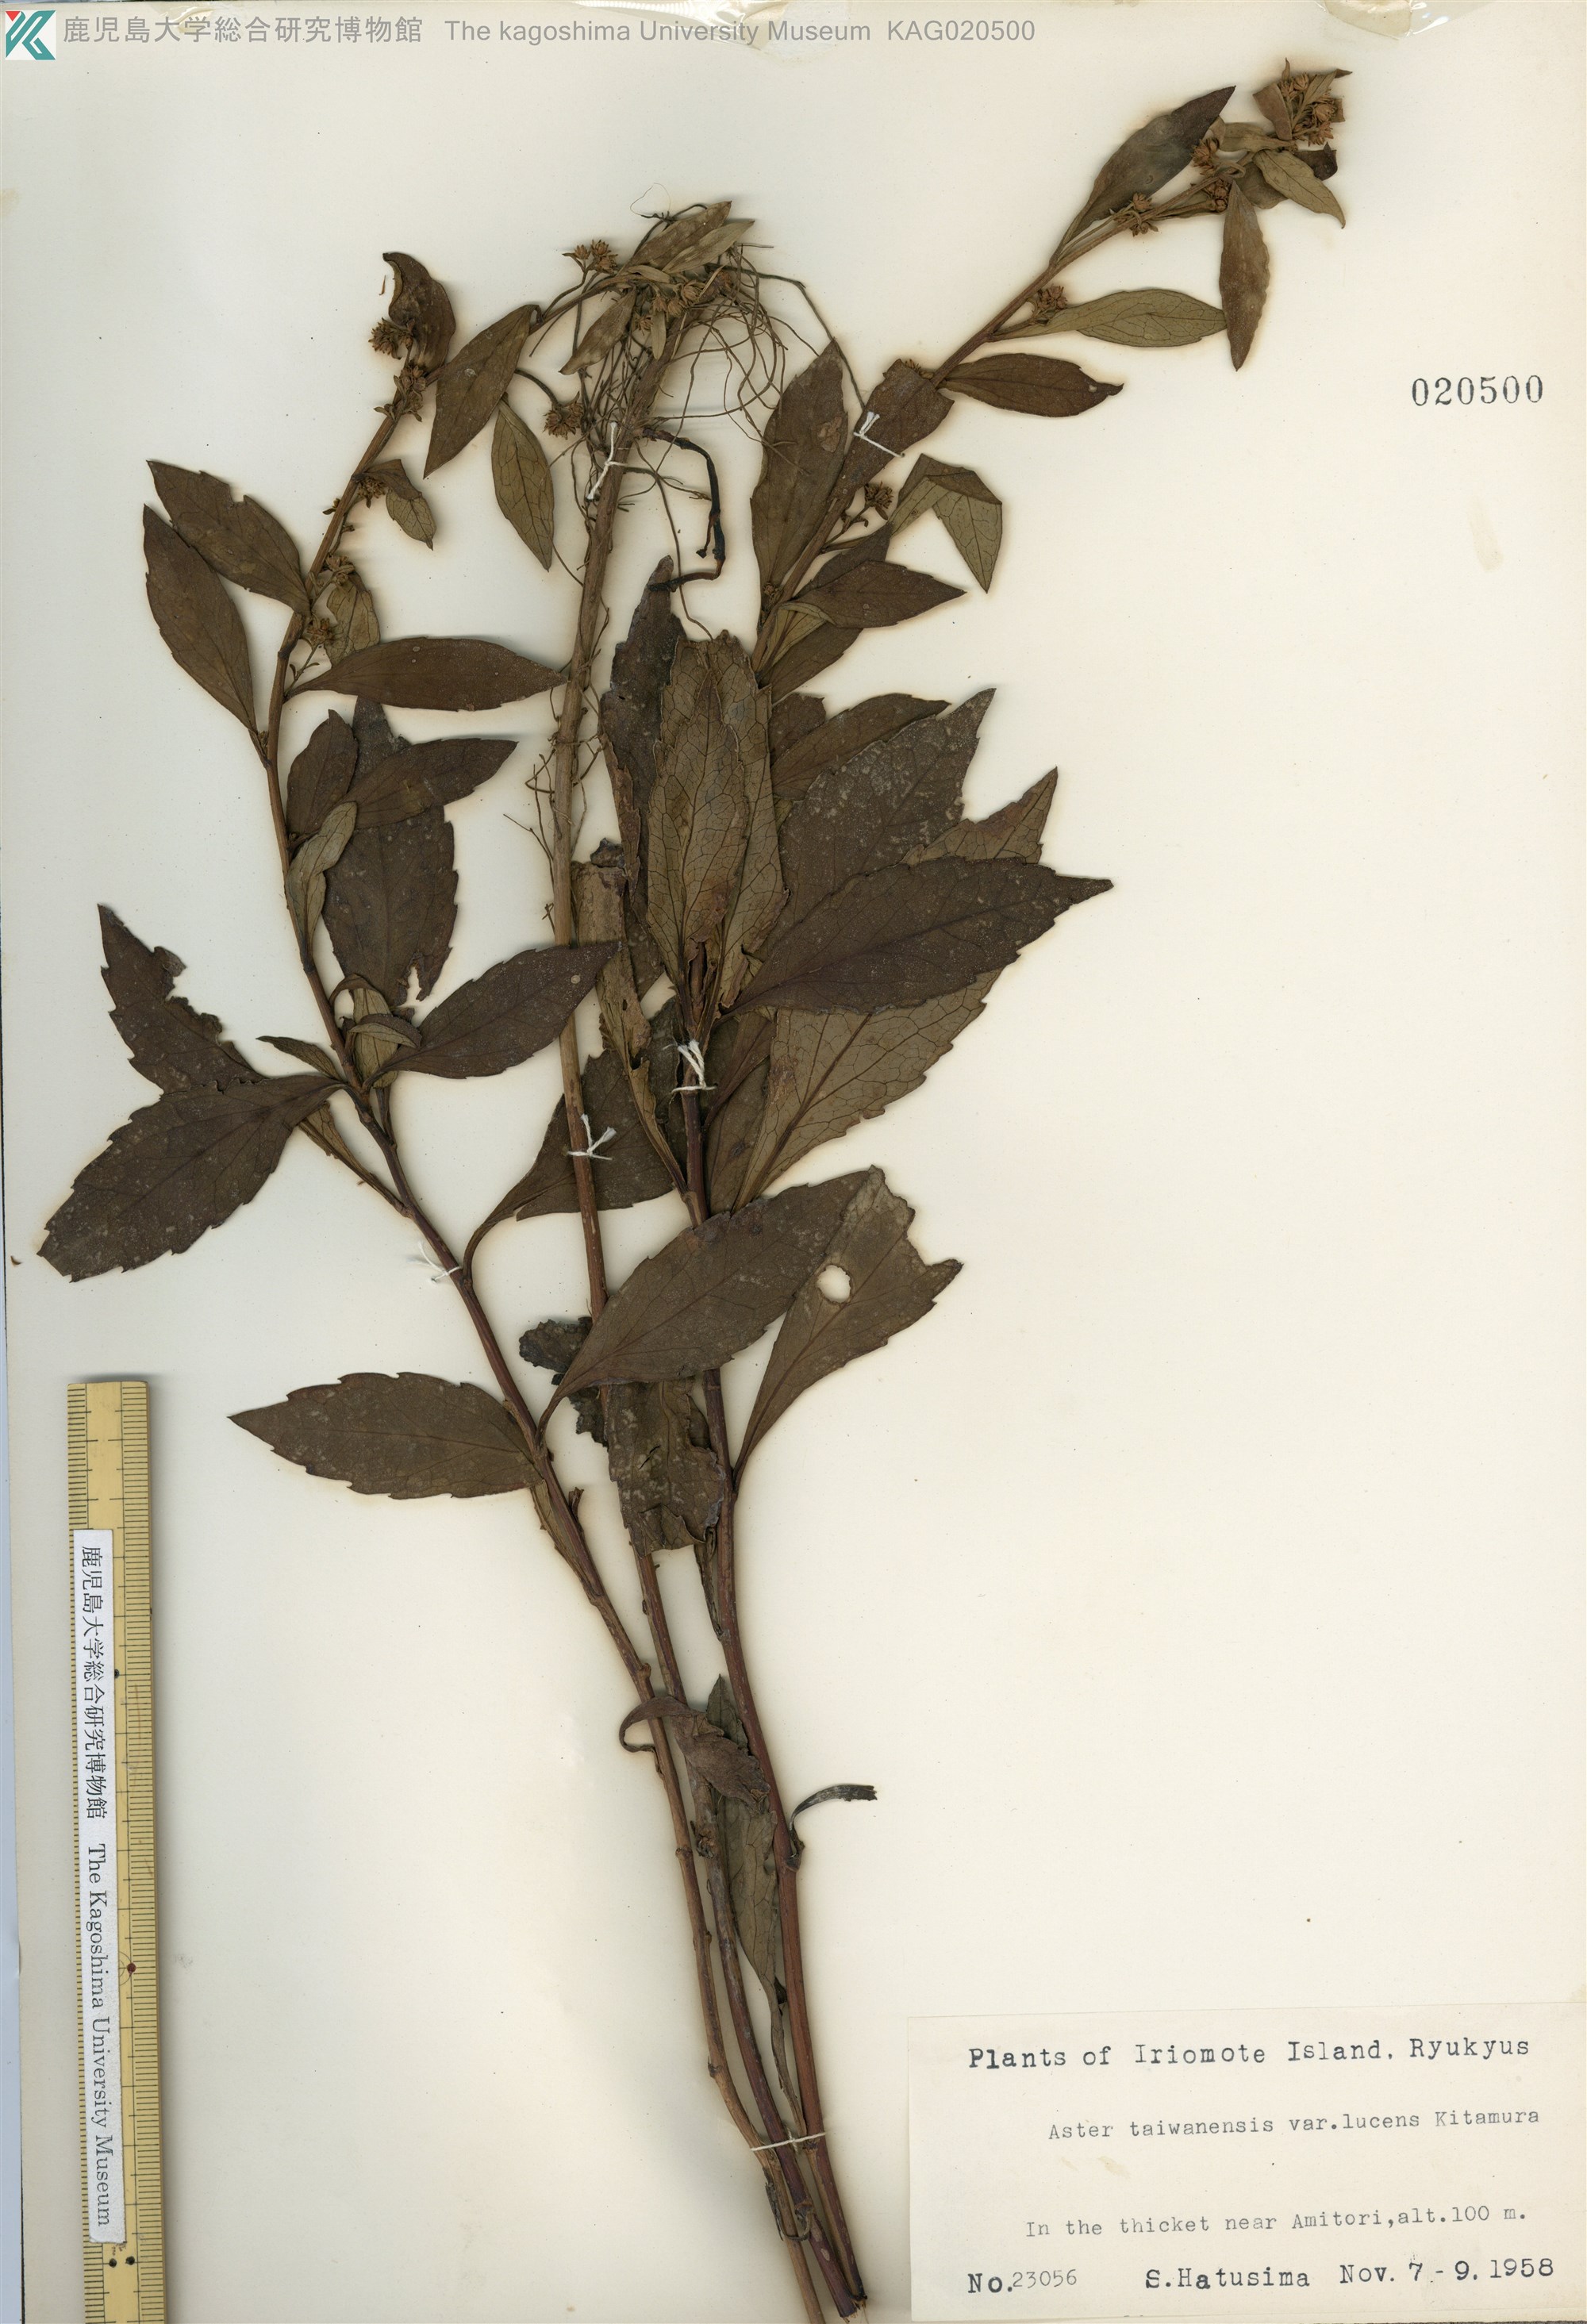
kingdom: Plantae
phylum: Tracheophyta
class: Magnoliopsida
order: Asterales
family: Asteraceae
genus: Aster
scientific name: Aster taiwanensis
